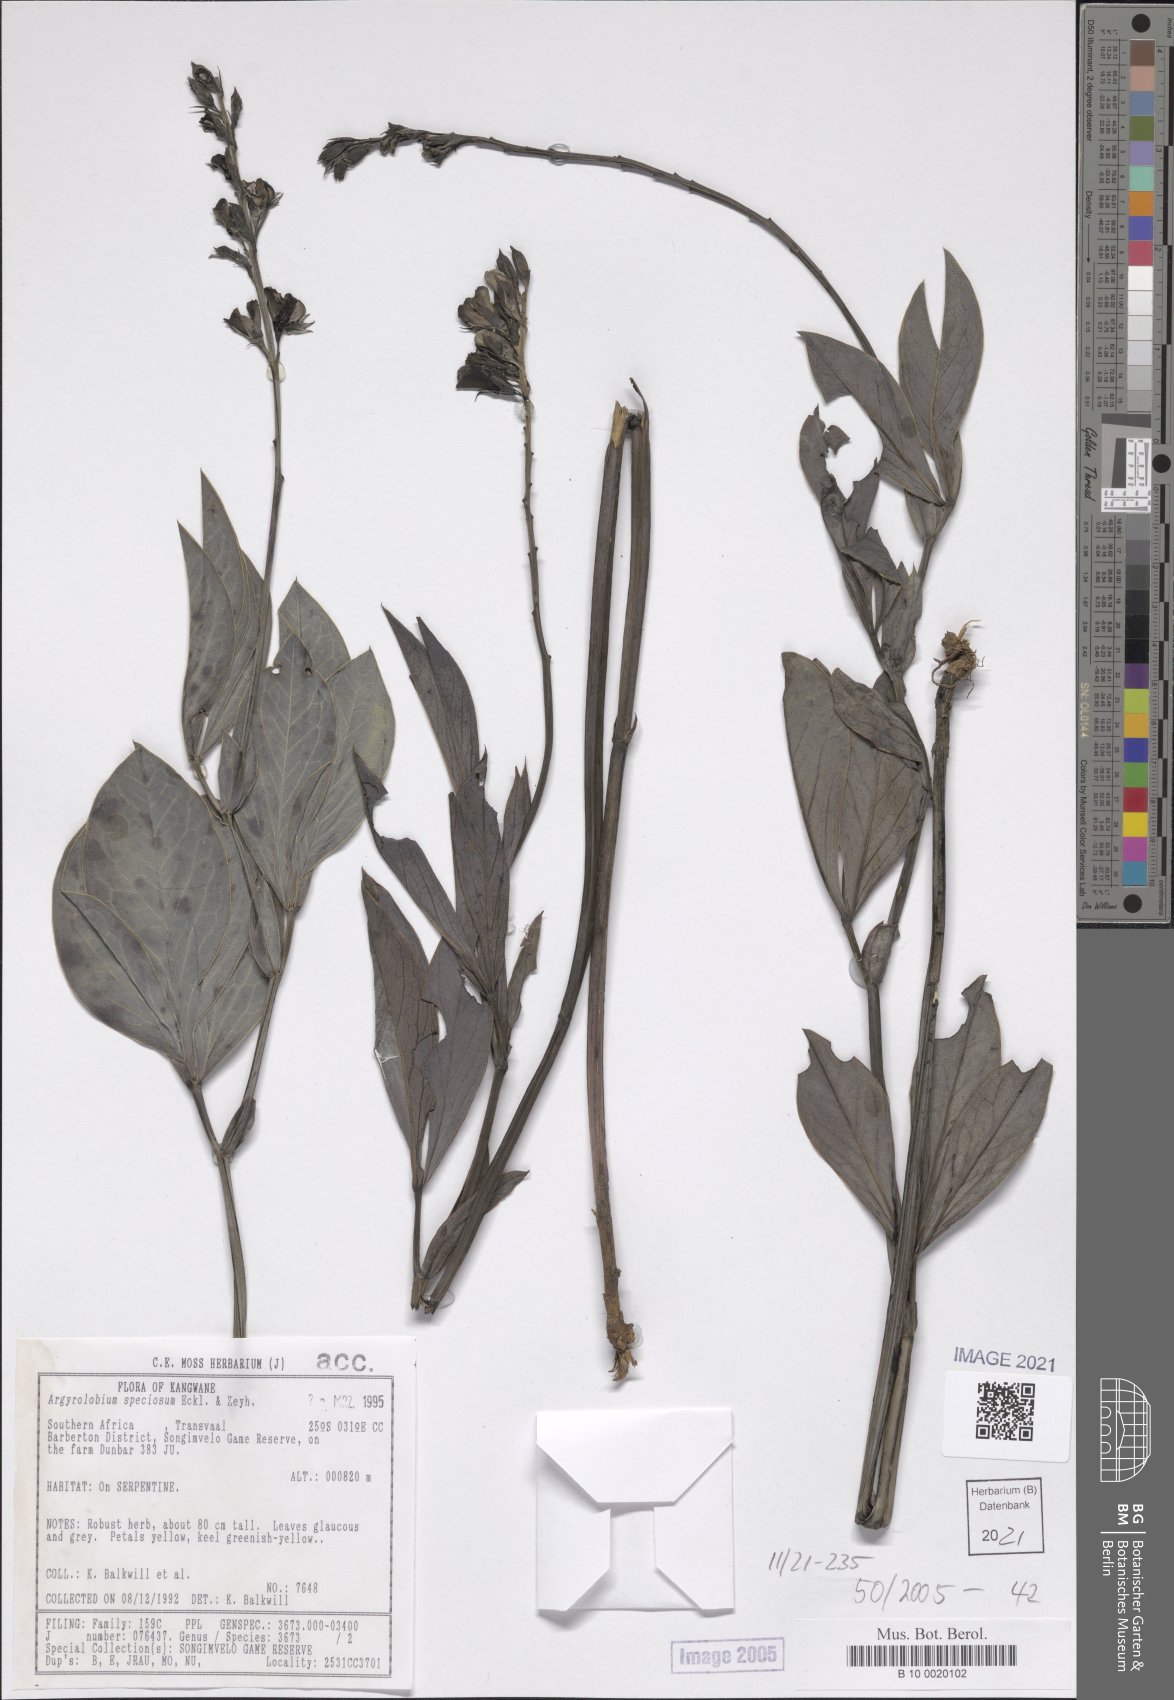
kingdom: Plantae
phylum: Tracheophyta
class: Magnoliopsida
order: Fabales
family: Fabaceae
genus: Argyrolobium
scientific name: Argyrolobium speciosum
